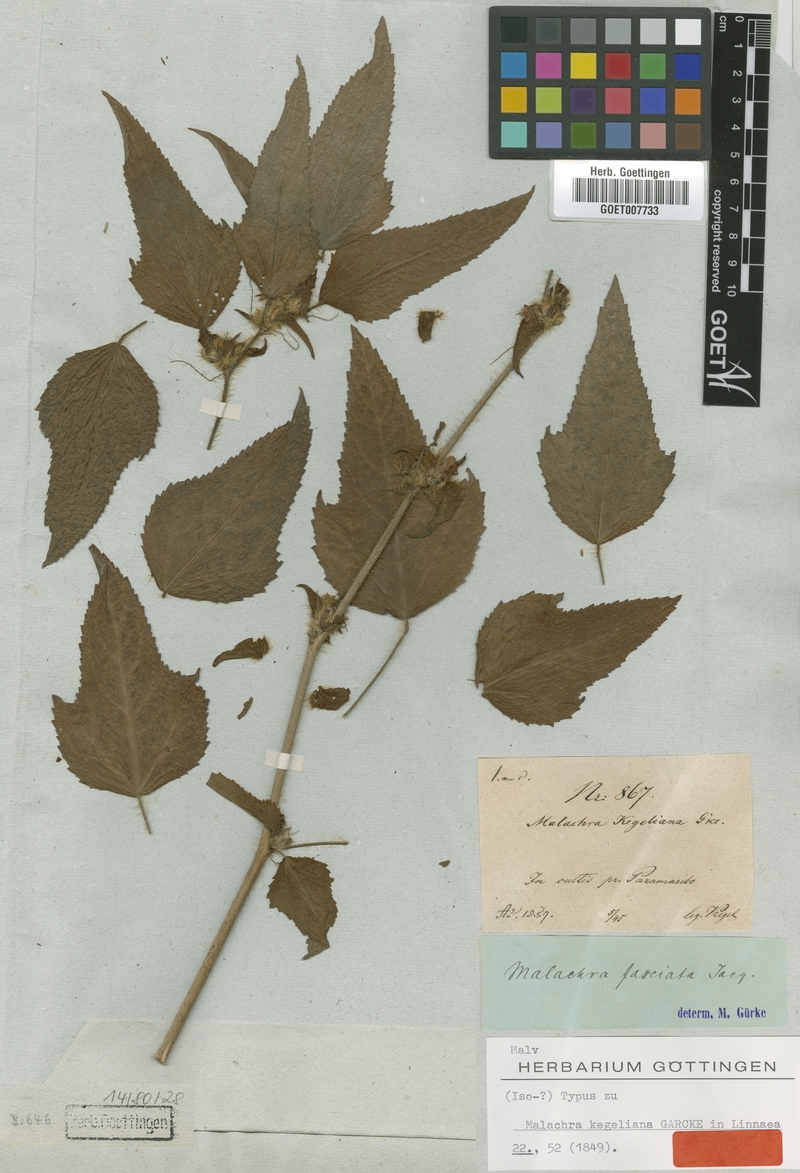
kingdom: Plantae
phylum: Tracheophyta
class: Magnoliopsida
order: Malvales
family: Malvaceae
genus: Malachra
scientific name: Malachra fasciata
